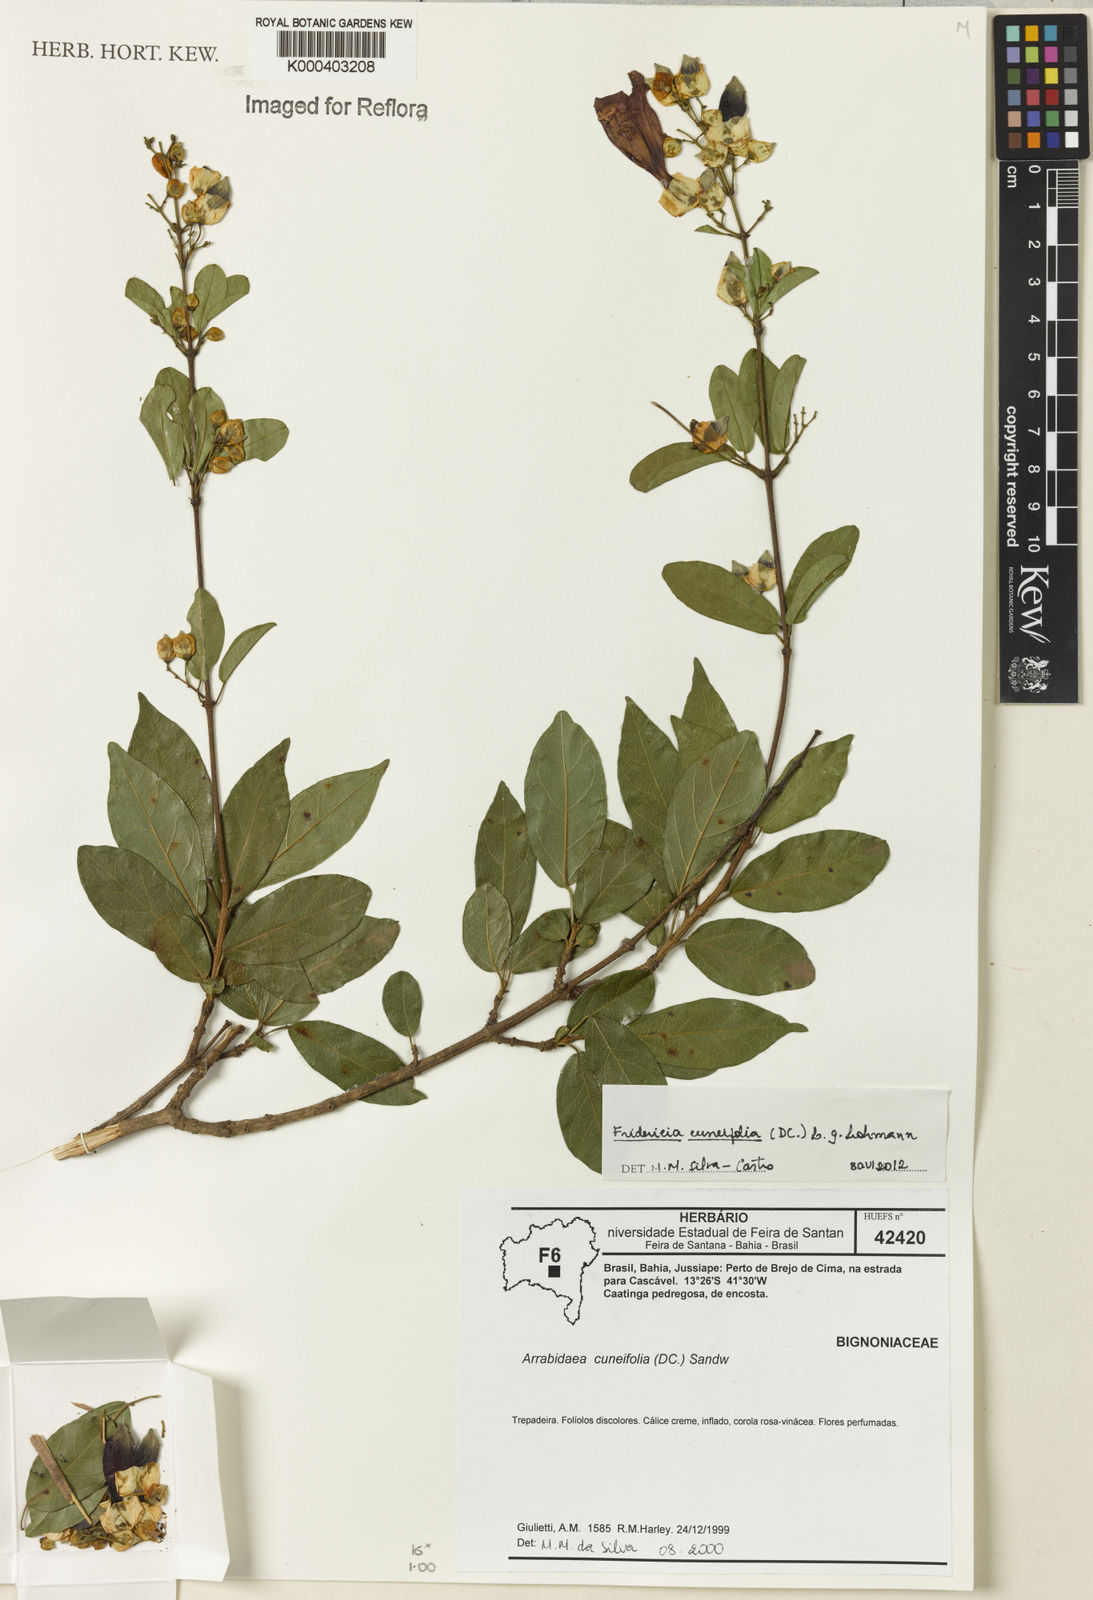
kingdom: Plantae
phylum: Tracheophyta
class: Magnoliopsida
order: Lamiales
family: Bignoniaceae
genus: Fridericia
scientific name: Fridericia cuneifolia
